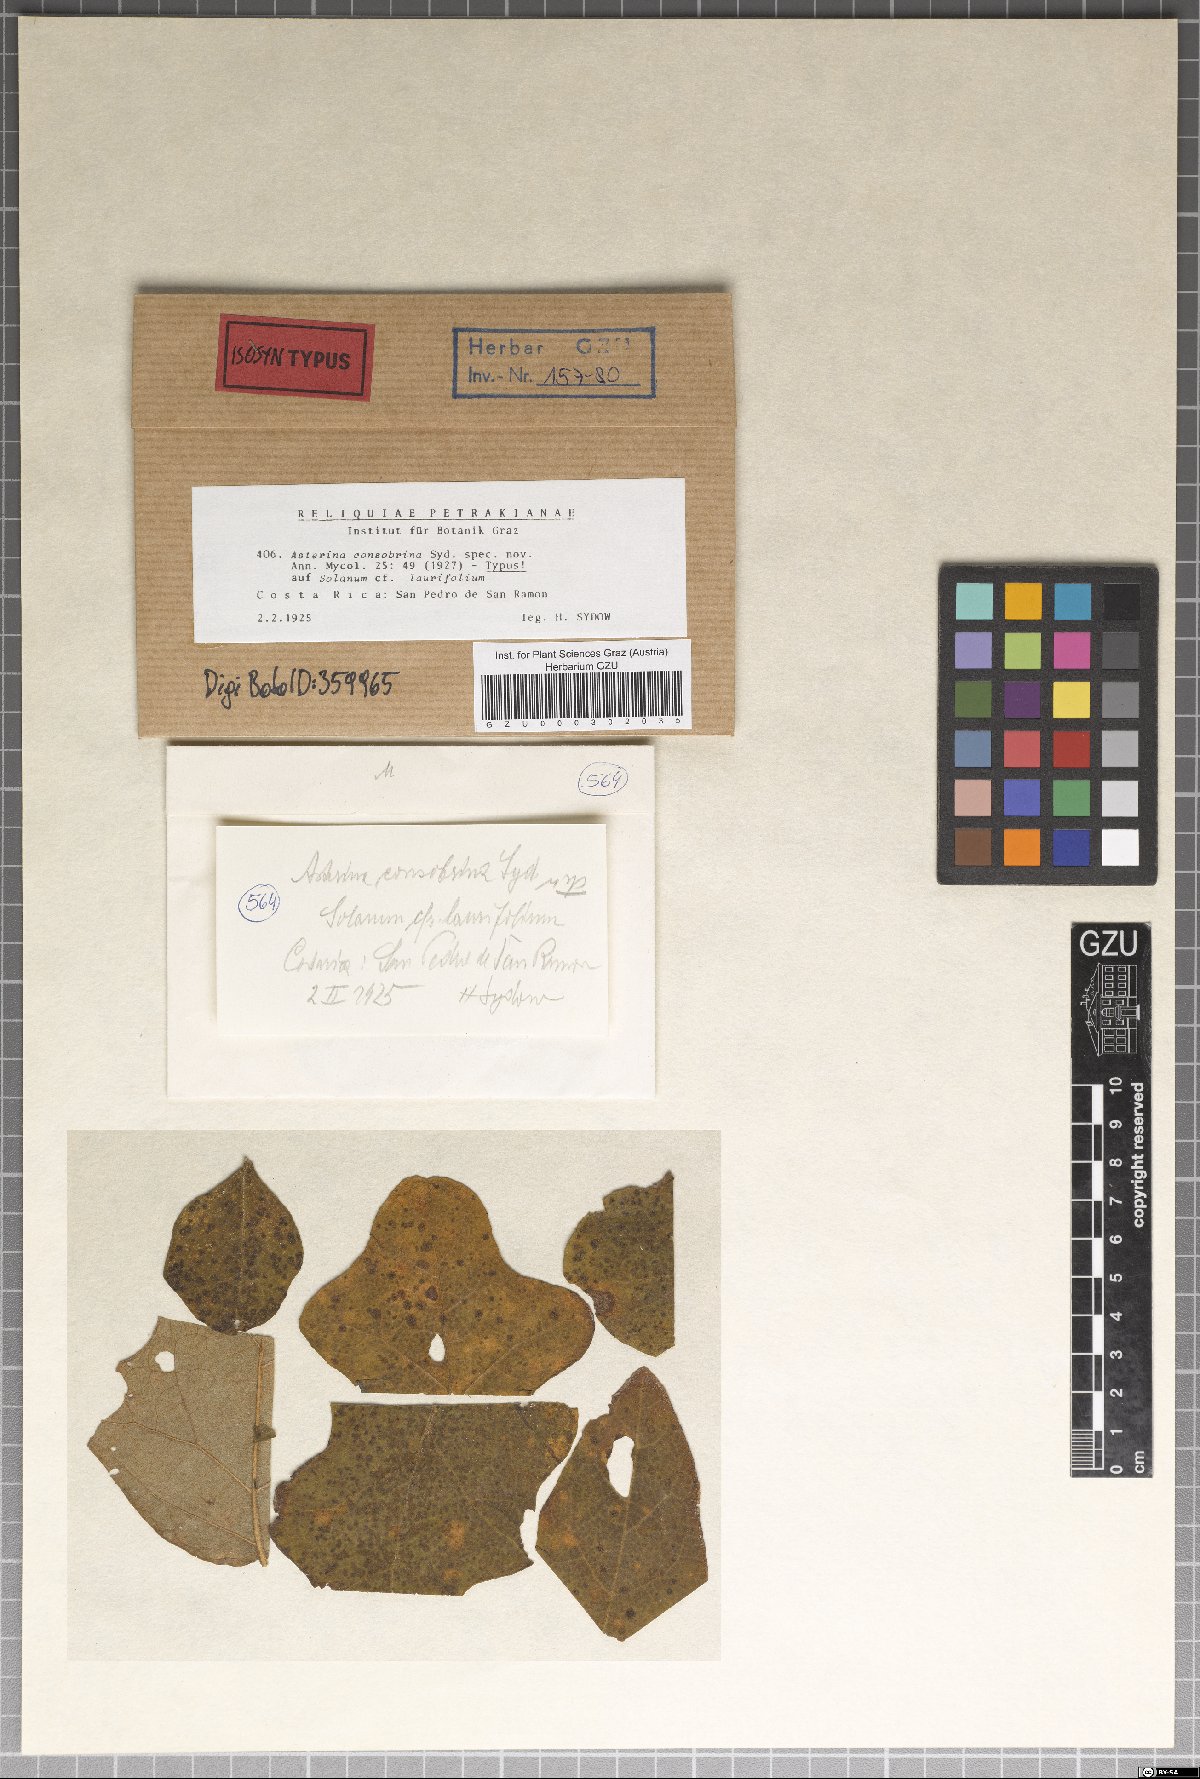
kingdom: Fungi
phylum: Ascomycota
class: Dothideomycetes
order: Asterinales
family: Asterinaceae
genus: Asterina
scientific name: Asterina consobrina
